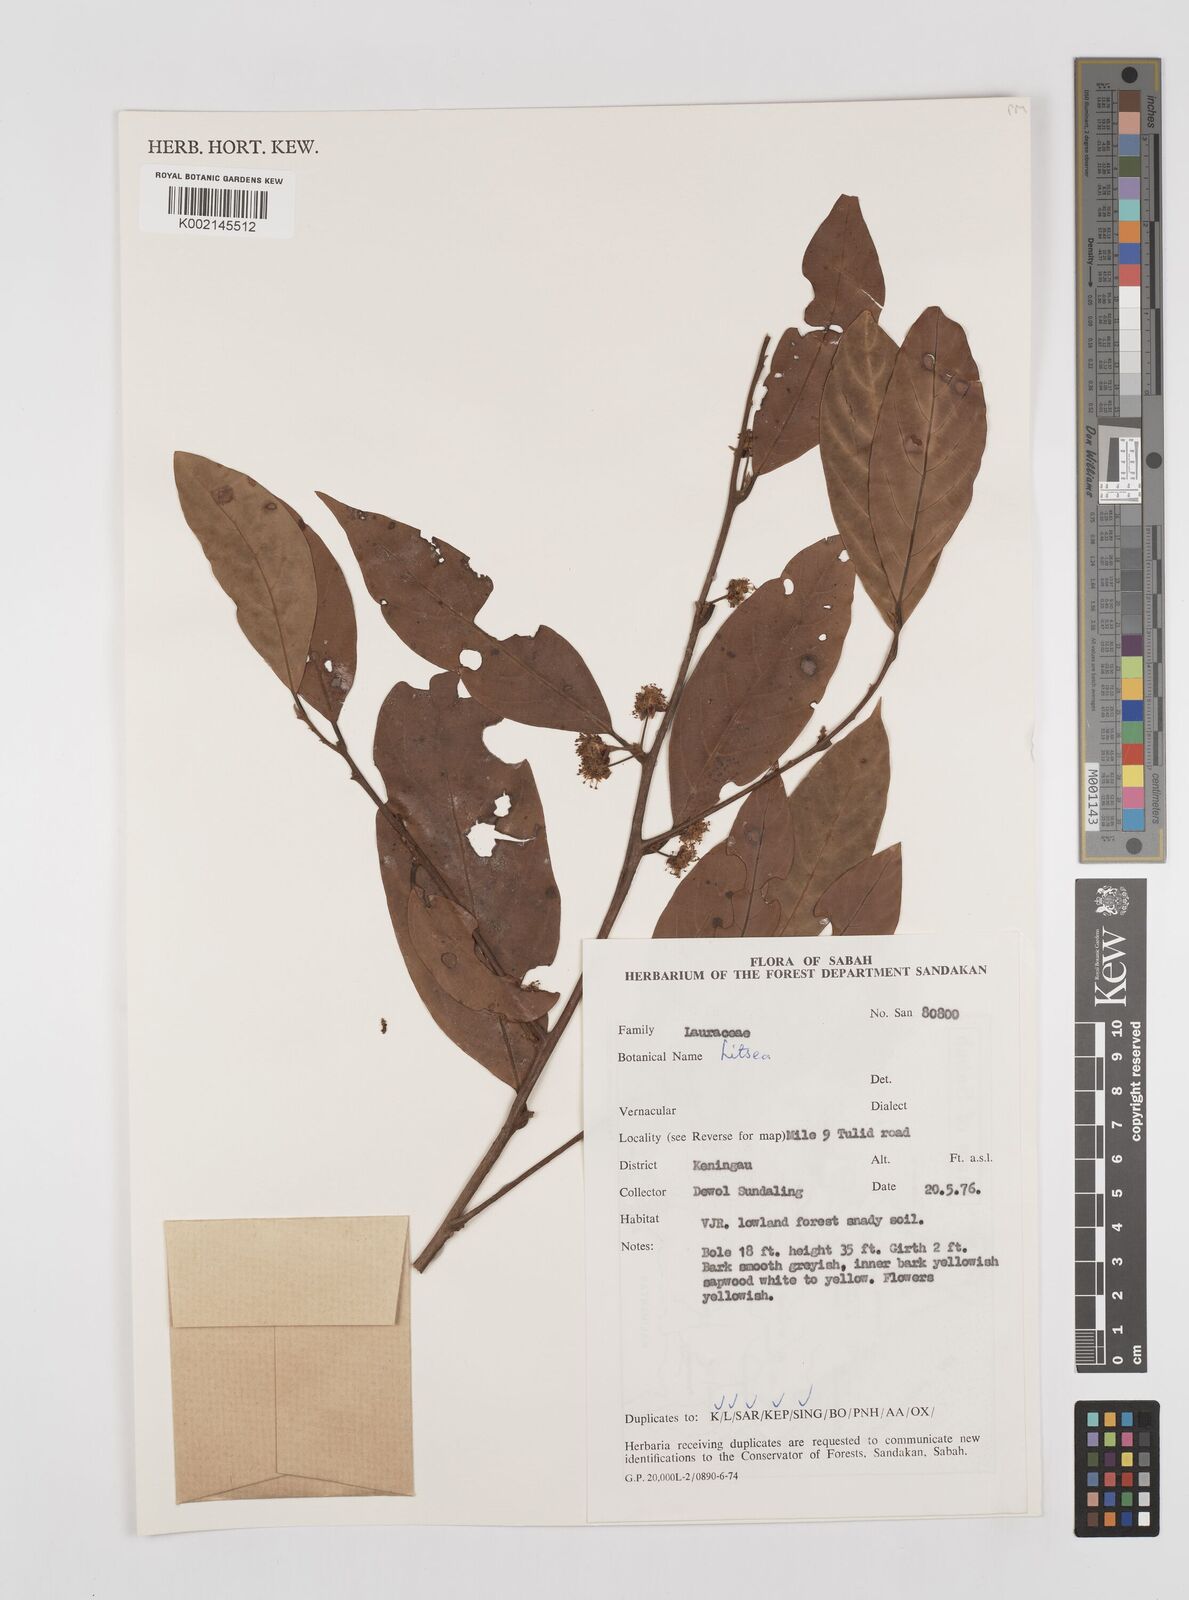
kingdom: Plantae
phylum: Tracheophyta
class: Magnoliopsida
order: Laurales
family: Lauraceae
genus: Litsea
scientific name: Litsea
